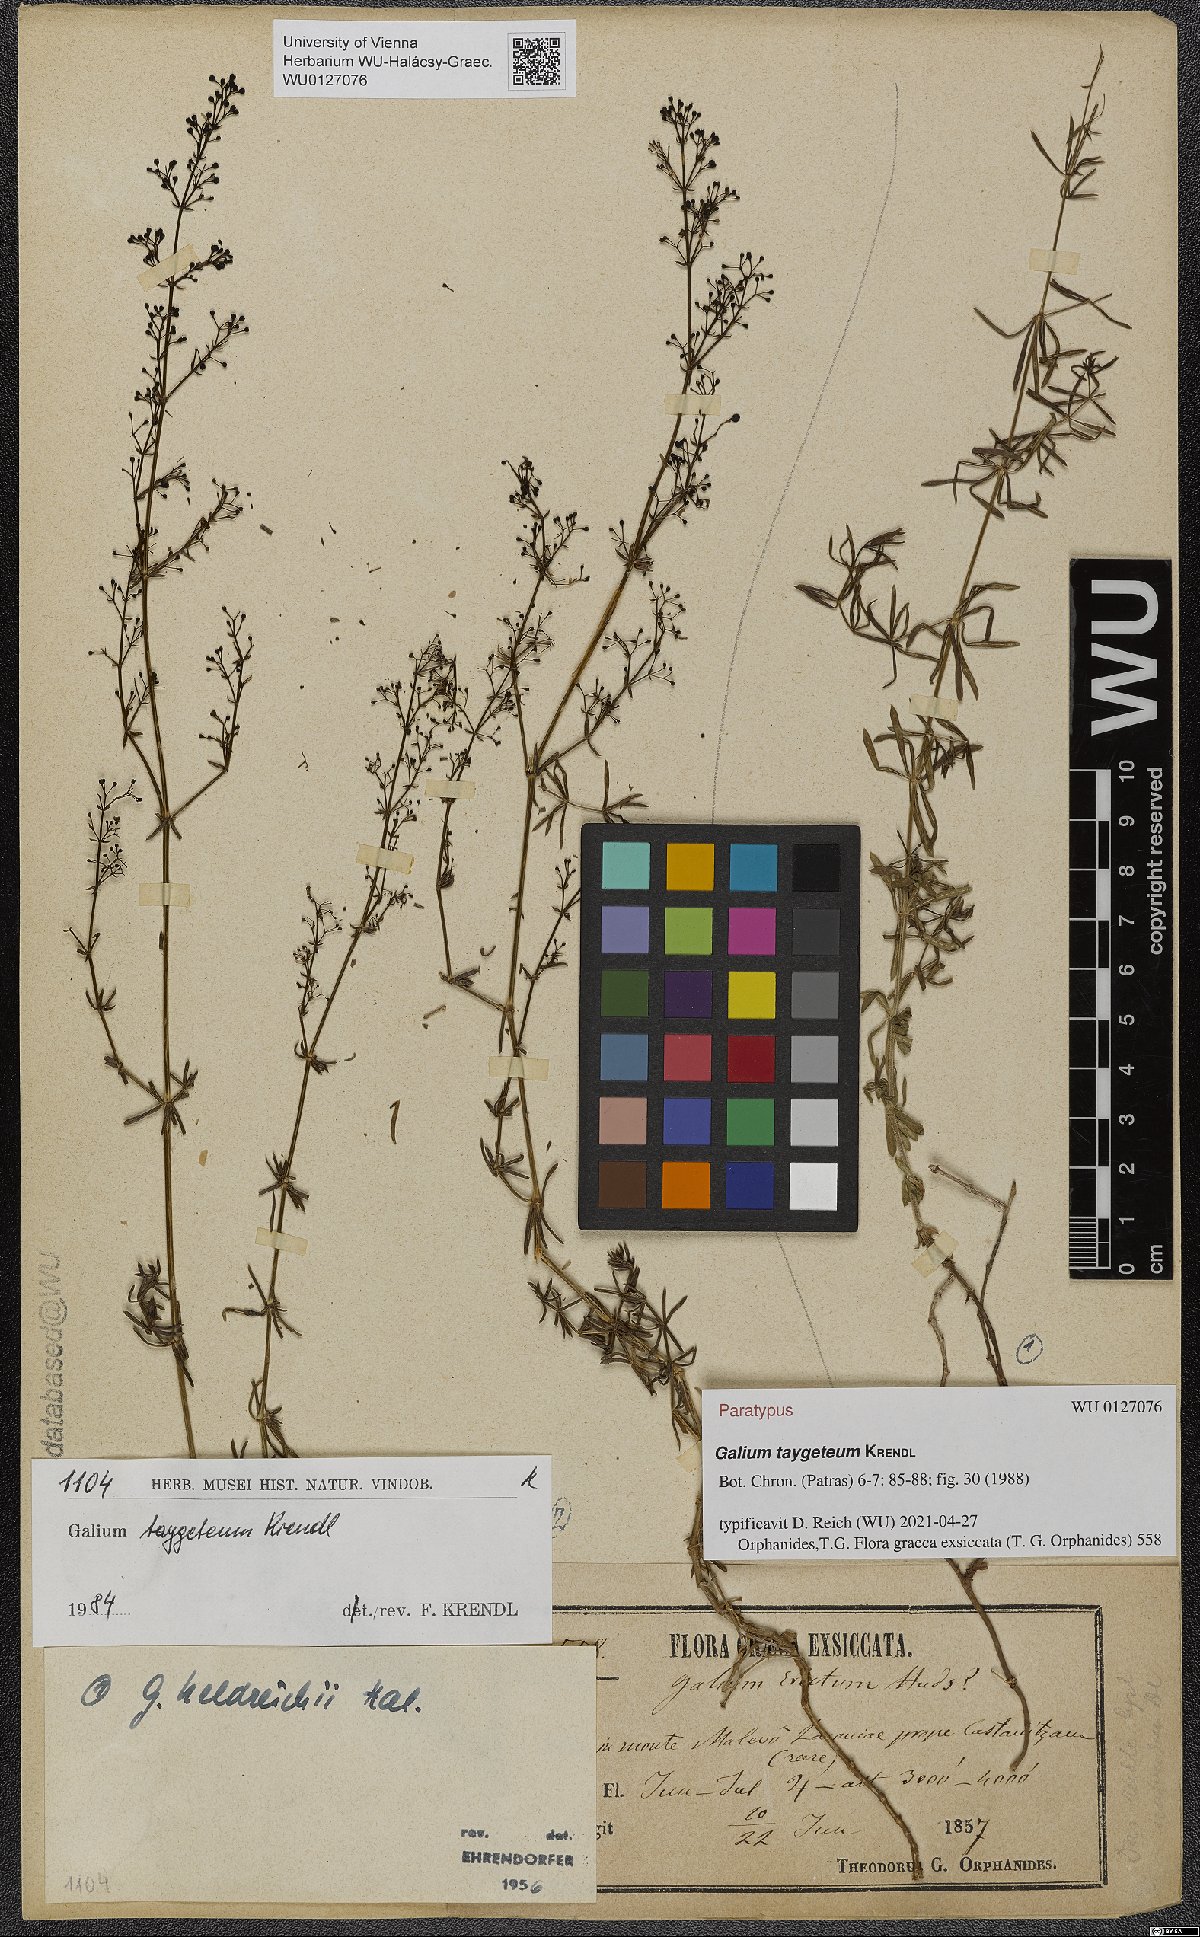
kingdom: Plantae
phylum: Tracheophyta
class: Magnoliopsida
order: Gentianales
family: Rubiaceae
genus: Galium
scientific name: Galium taygeteum
